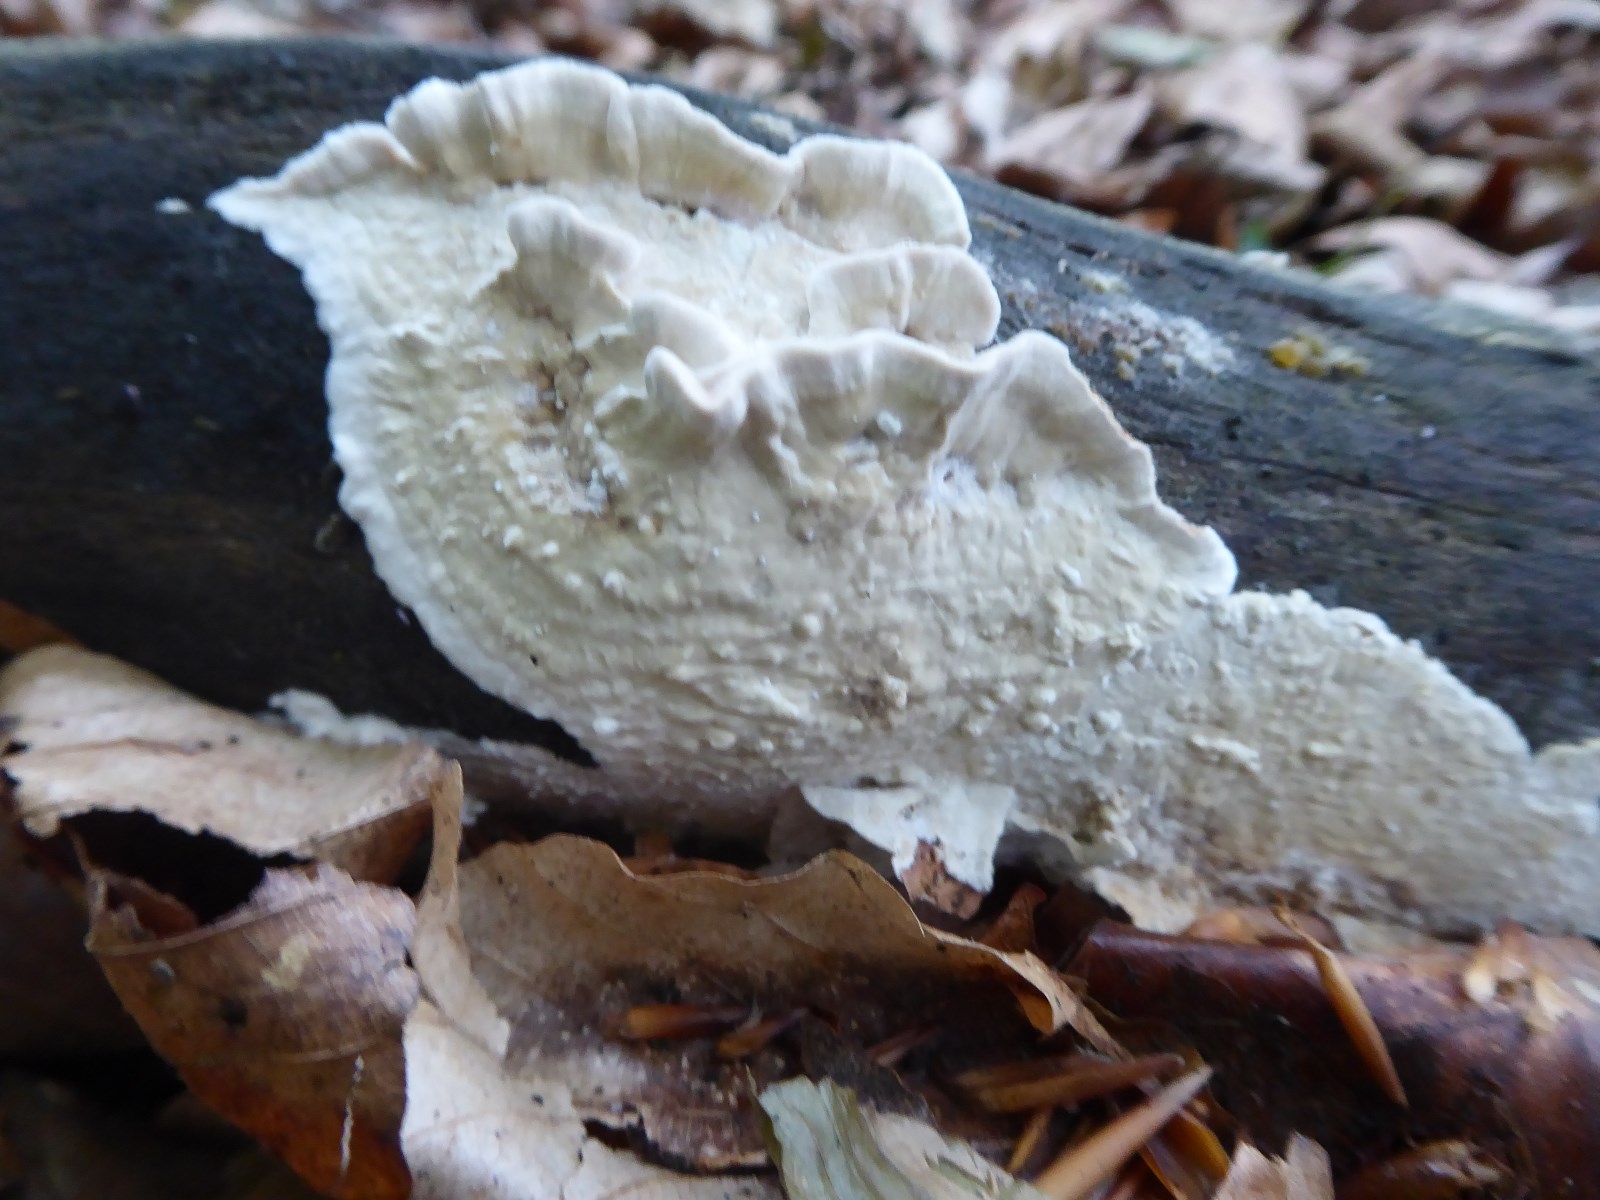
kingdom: Fungi
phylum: Basidiomycota
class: Agaricomycetes
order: Corticiales
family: Corticiaceae
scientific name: Corticiaceae
